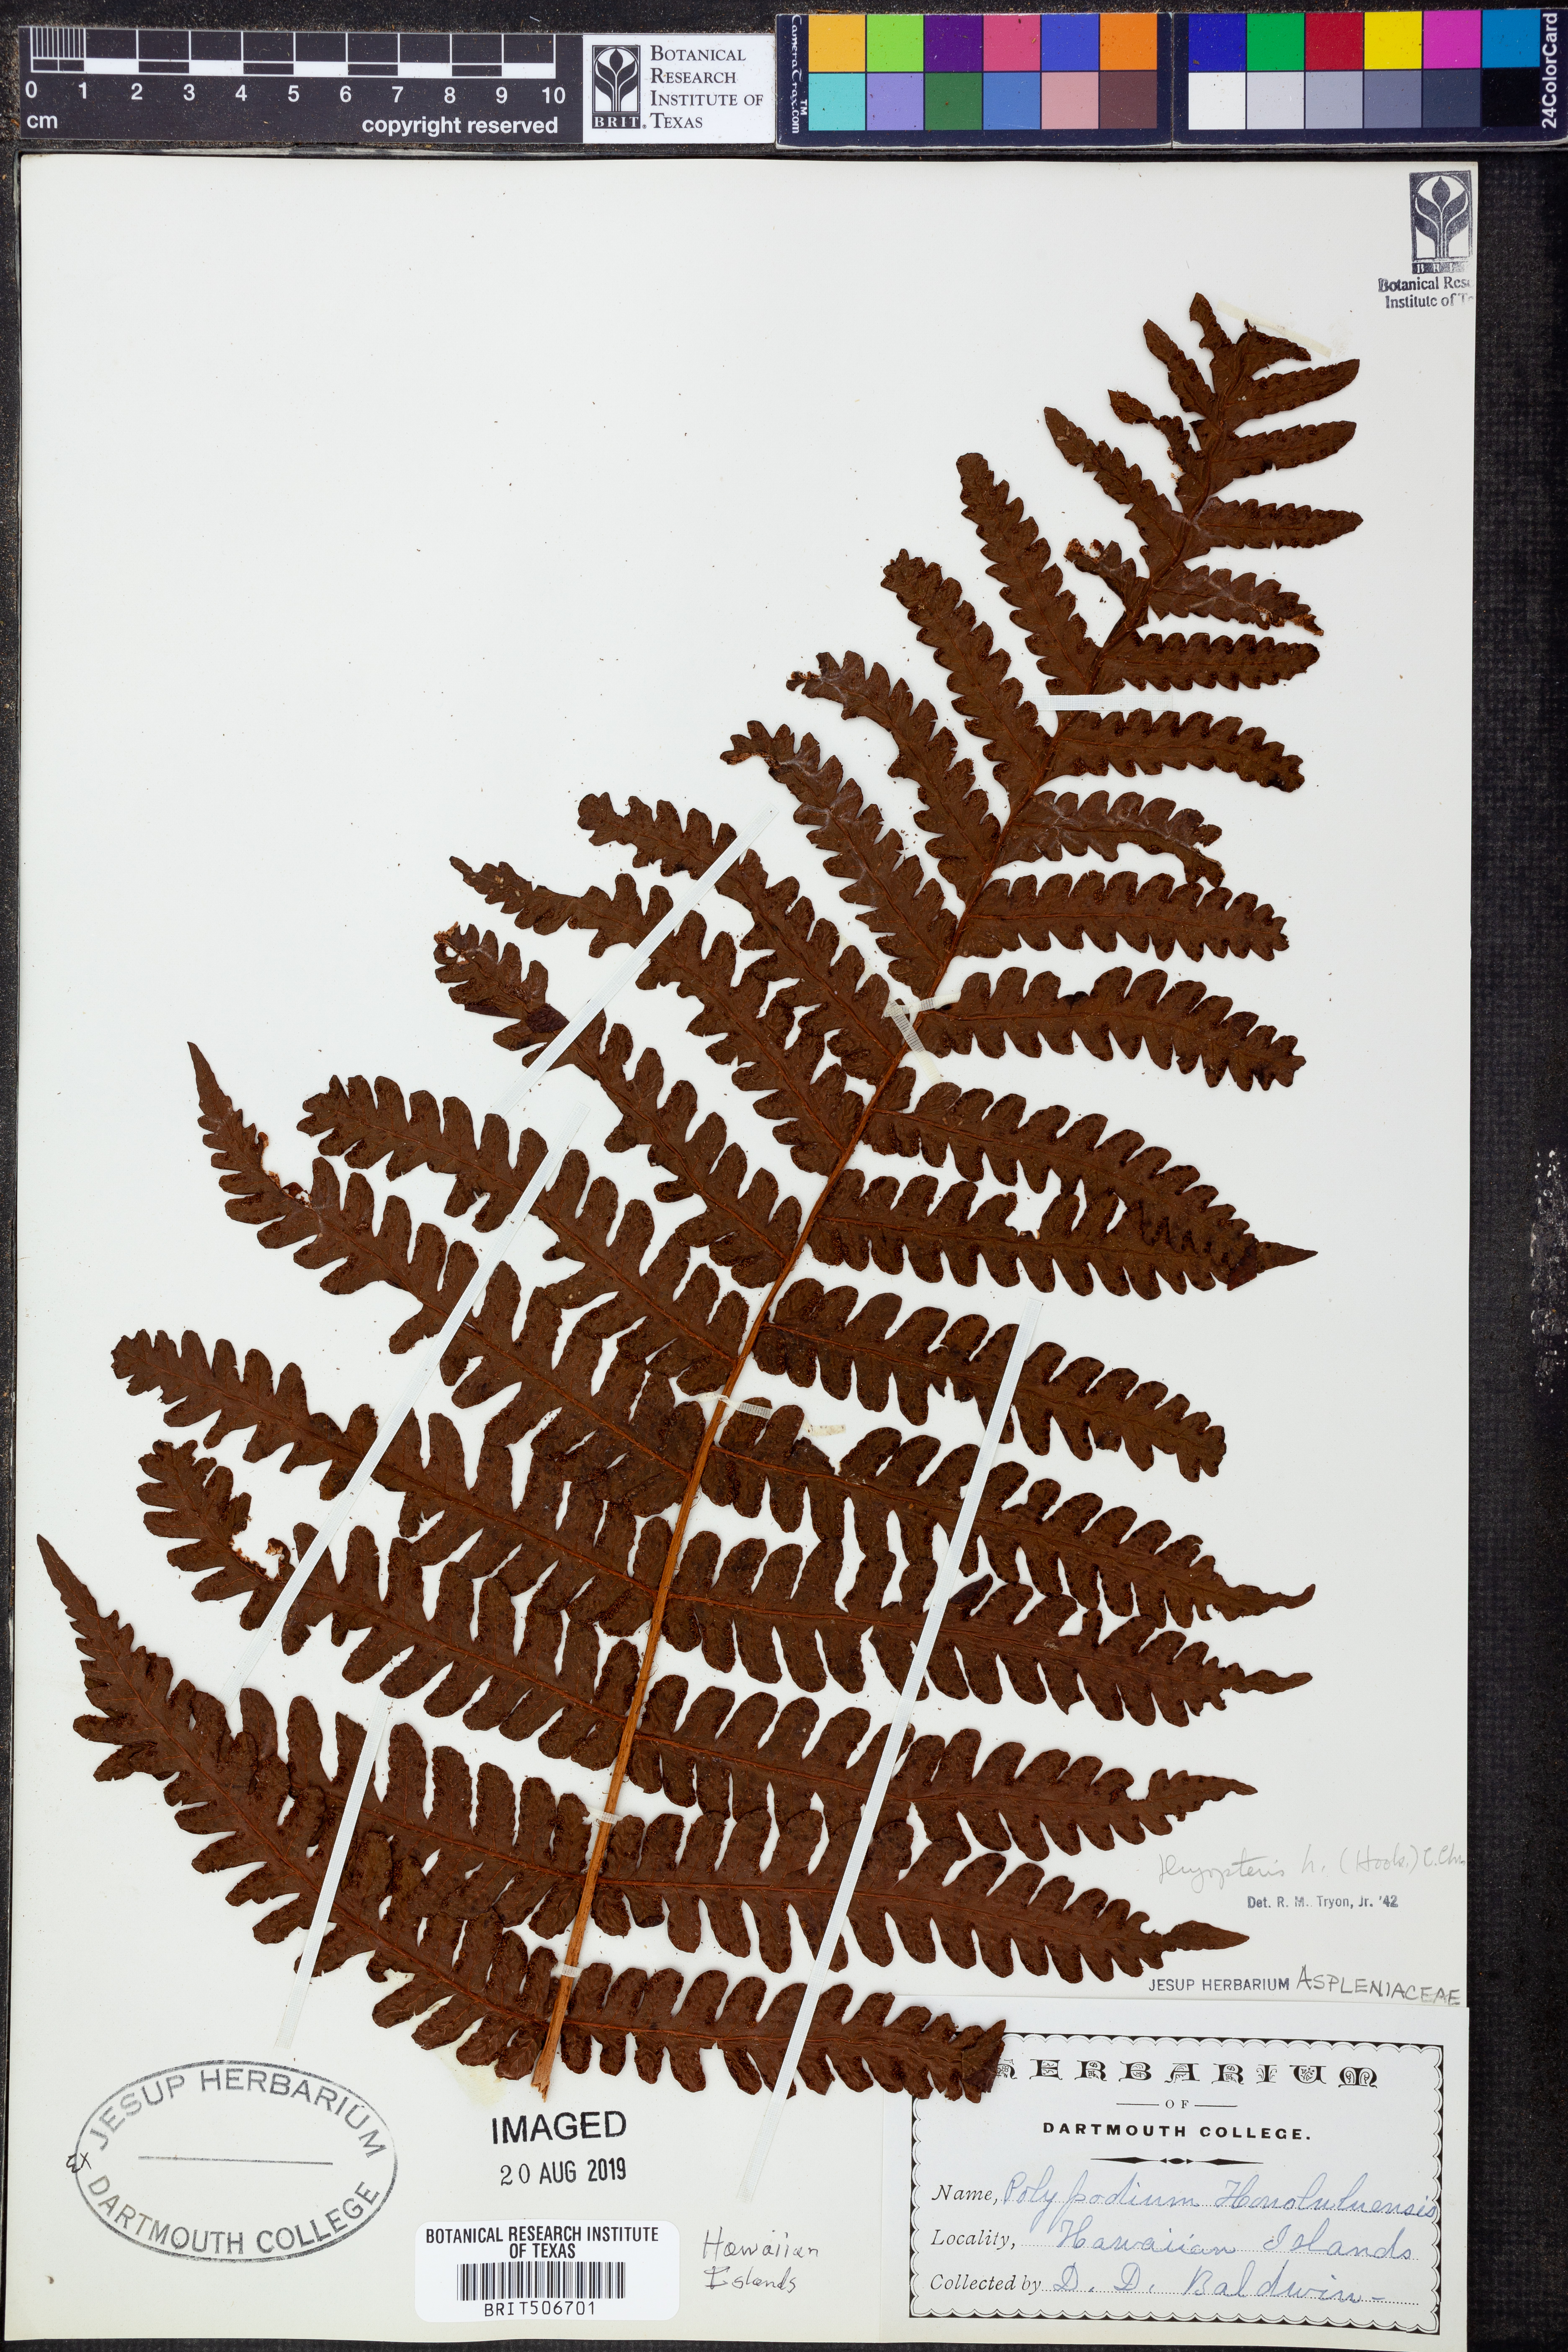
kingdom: Plantae
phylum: Tracheophyta
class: Polypodiopsida
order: Polypodiales
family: Dryopteridaceae
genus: Ctenitis
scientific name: Ctenitis latifrons
